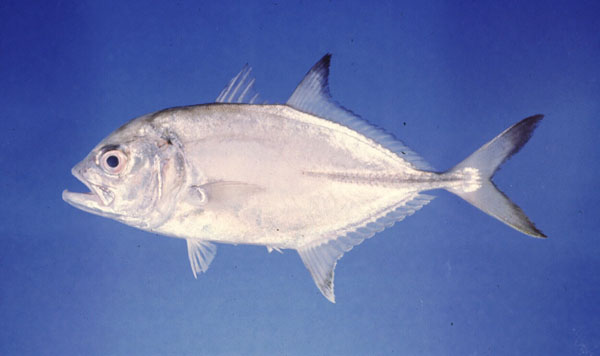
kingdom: Animalia
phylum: Chordata
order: Perciformes
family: Carangidae
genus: Caranx
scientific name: Caranx heberi
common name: Blacktip trevally
